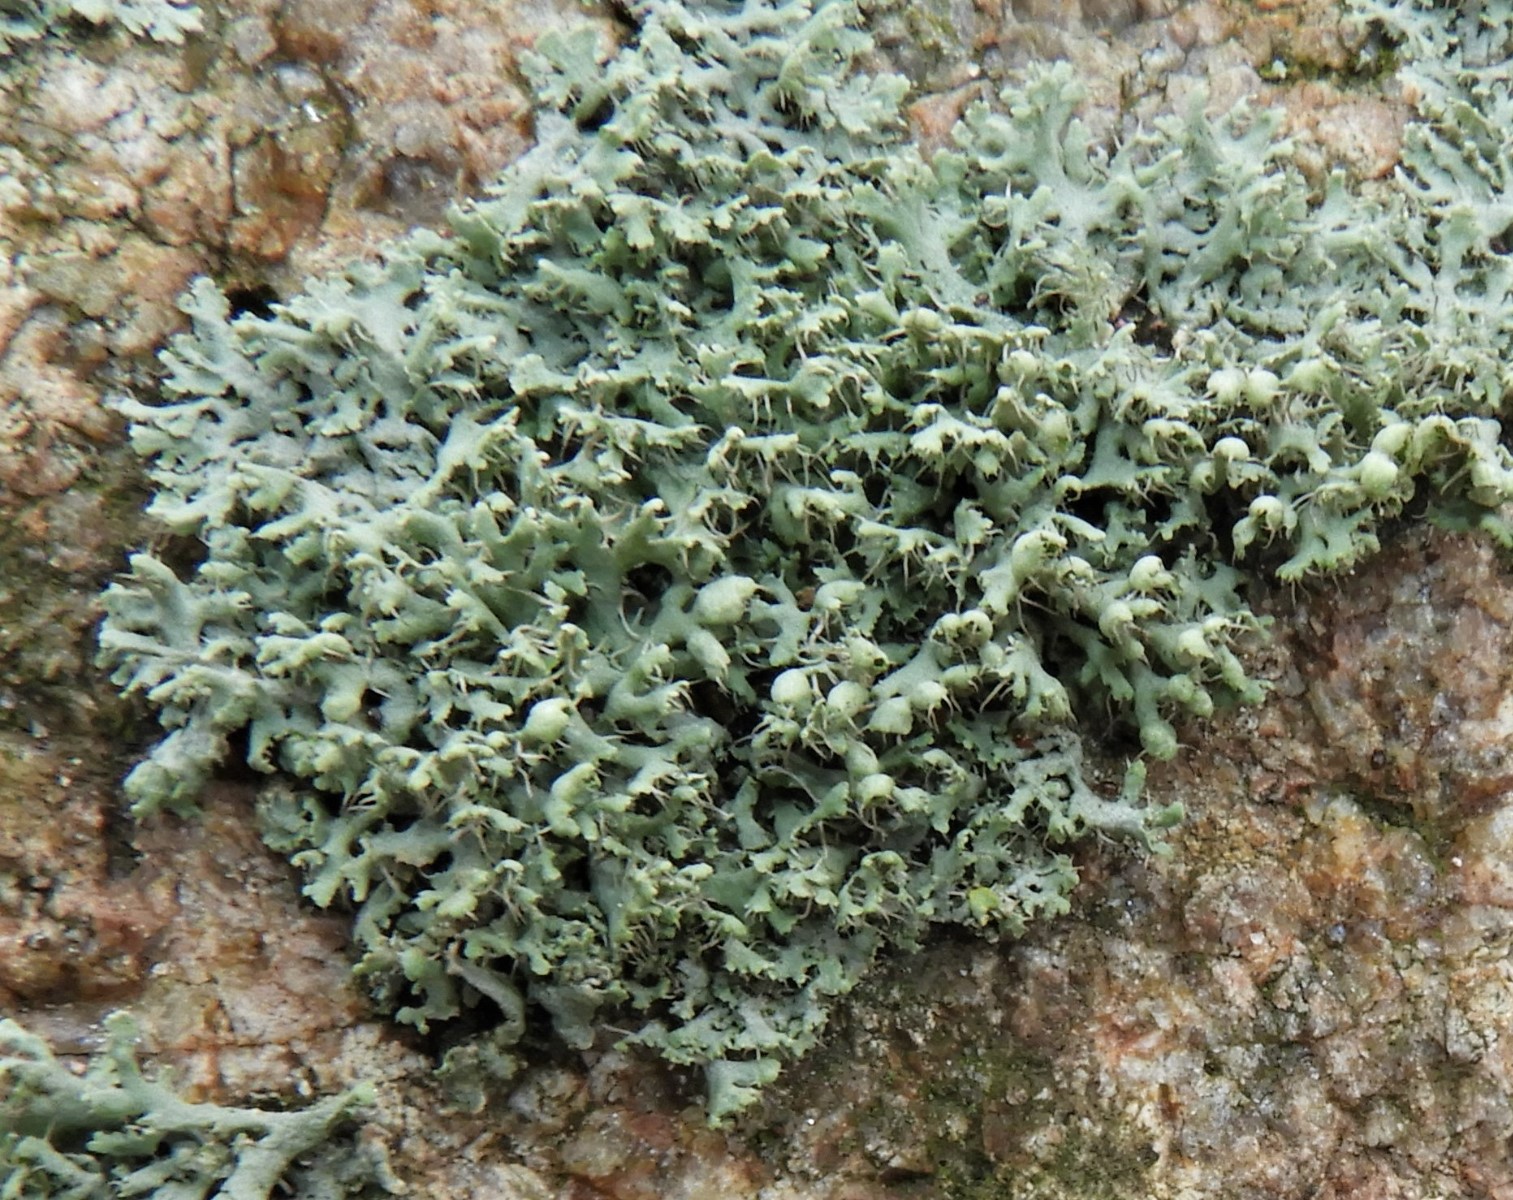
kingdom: Fungi
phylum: Ascomycota
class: Lecanoromycetes
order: Caliciales
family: Physciaceae
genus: Physcia
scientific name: Physcia adscendens
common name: hætte-rosetlav
